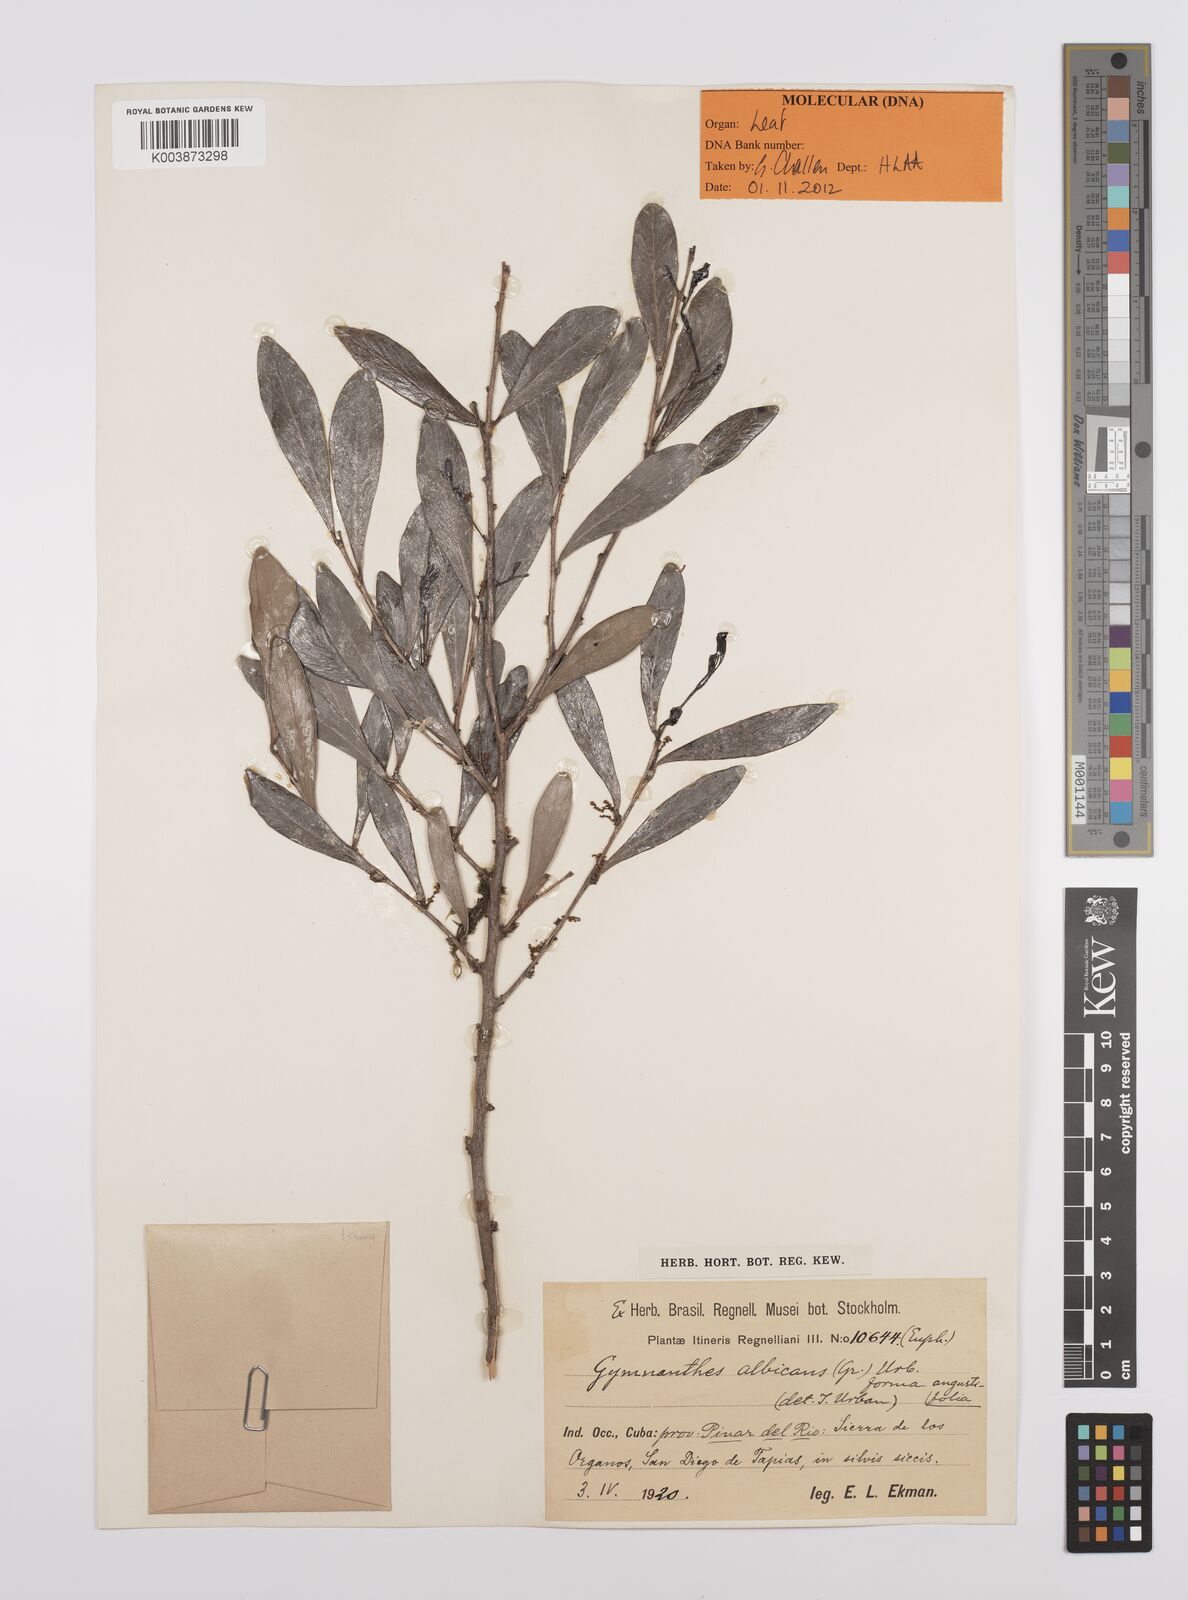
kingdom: Plantae
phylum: Tracheophyta
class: Magnoliopsida
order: Malpighiales
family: Euphorbiaceae
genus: Gymnanthes
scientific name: Gymnanthes albicans
